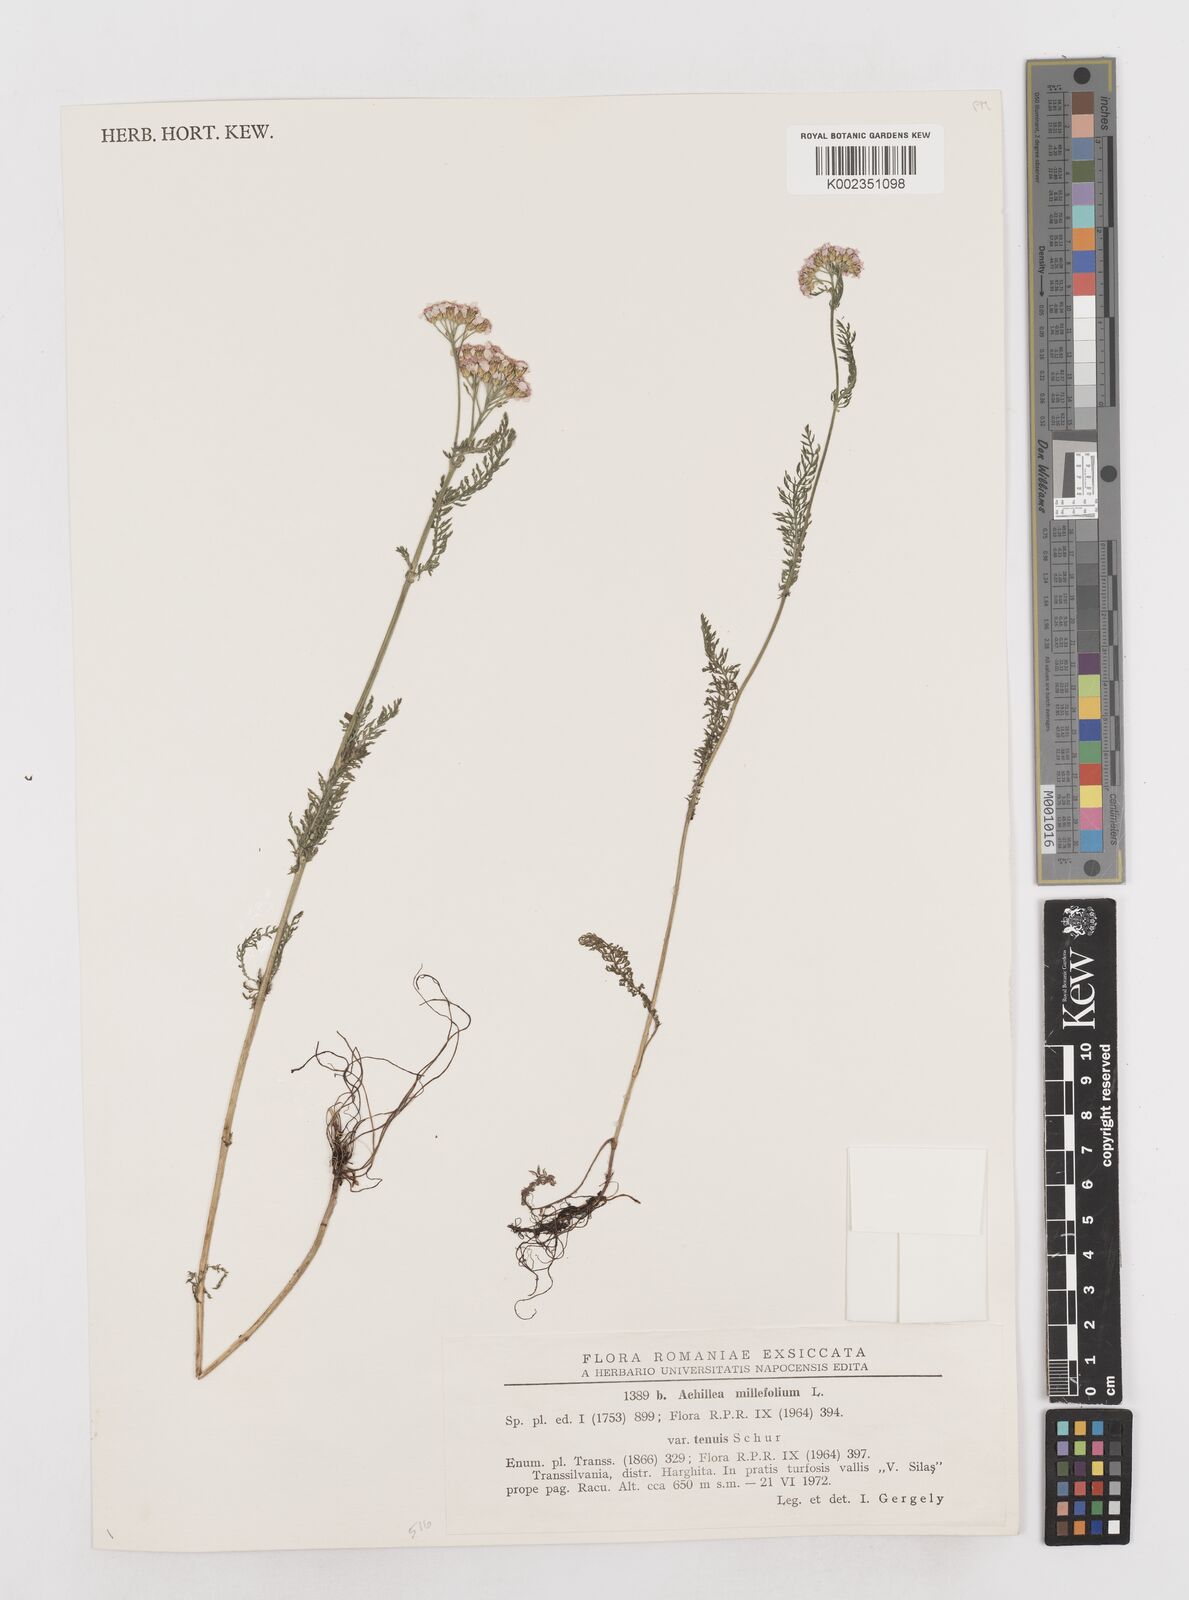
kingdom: Plantae
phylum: Tracheophyta
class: Magnoliopsida
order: Asterales
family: Asteraceae
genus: Achillea
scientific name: Achillea millefolium
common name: Yarrow
